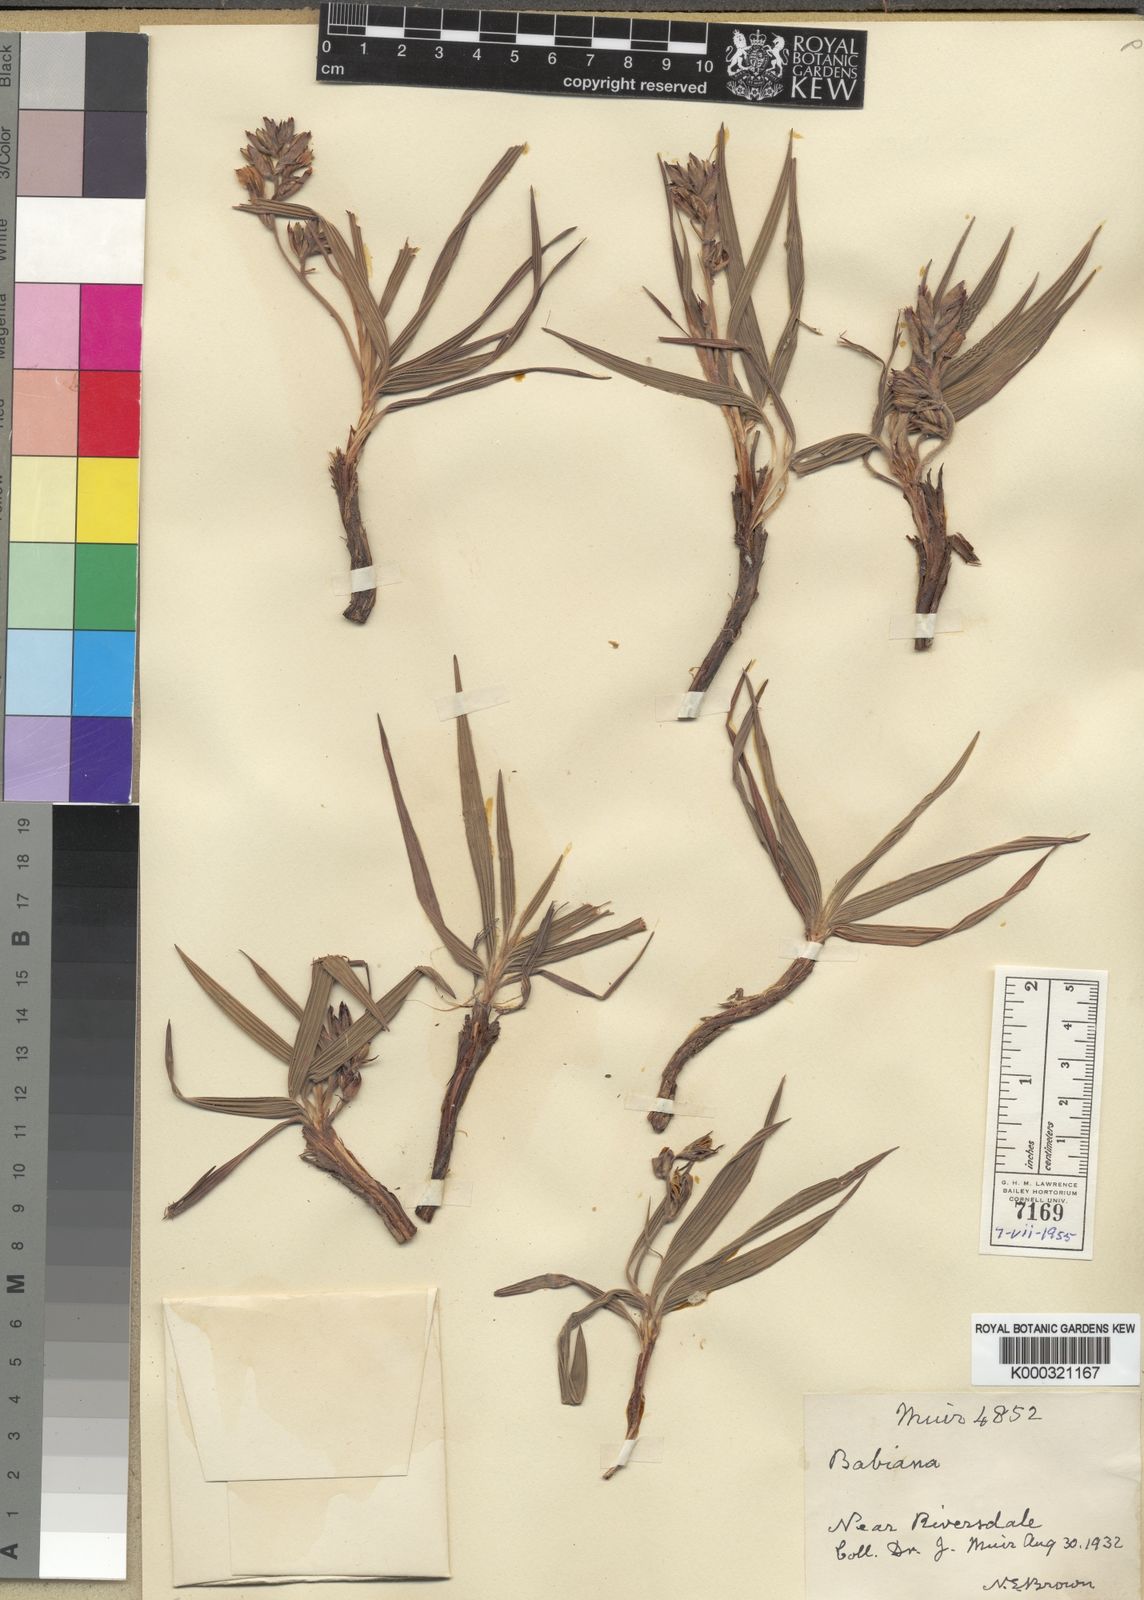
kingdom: Plantae
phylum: Tracheophyta
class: Liliopsida
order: Asparagales
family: Iridaceae
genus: Babiana
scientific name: Babiana patula
